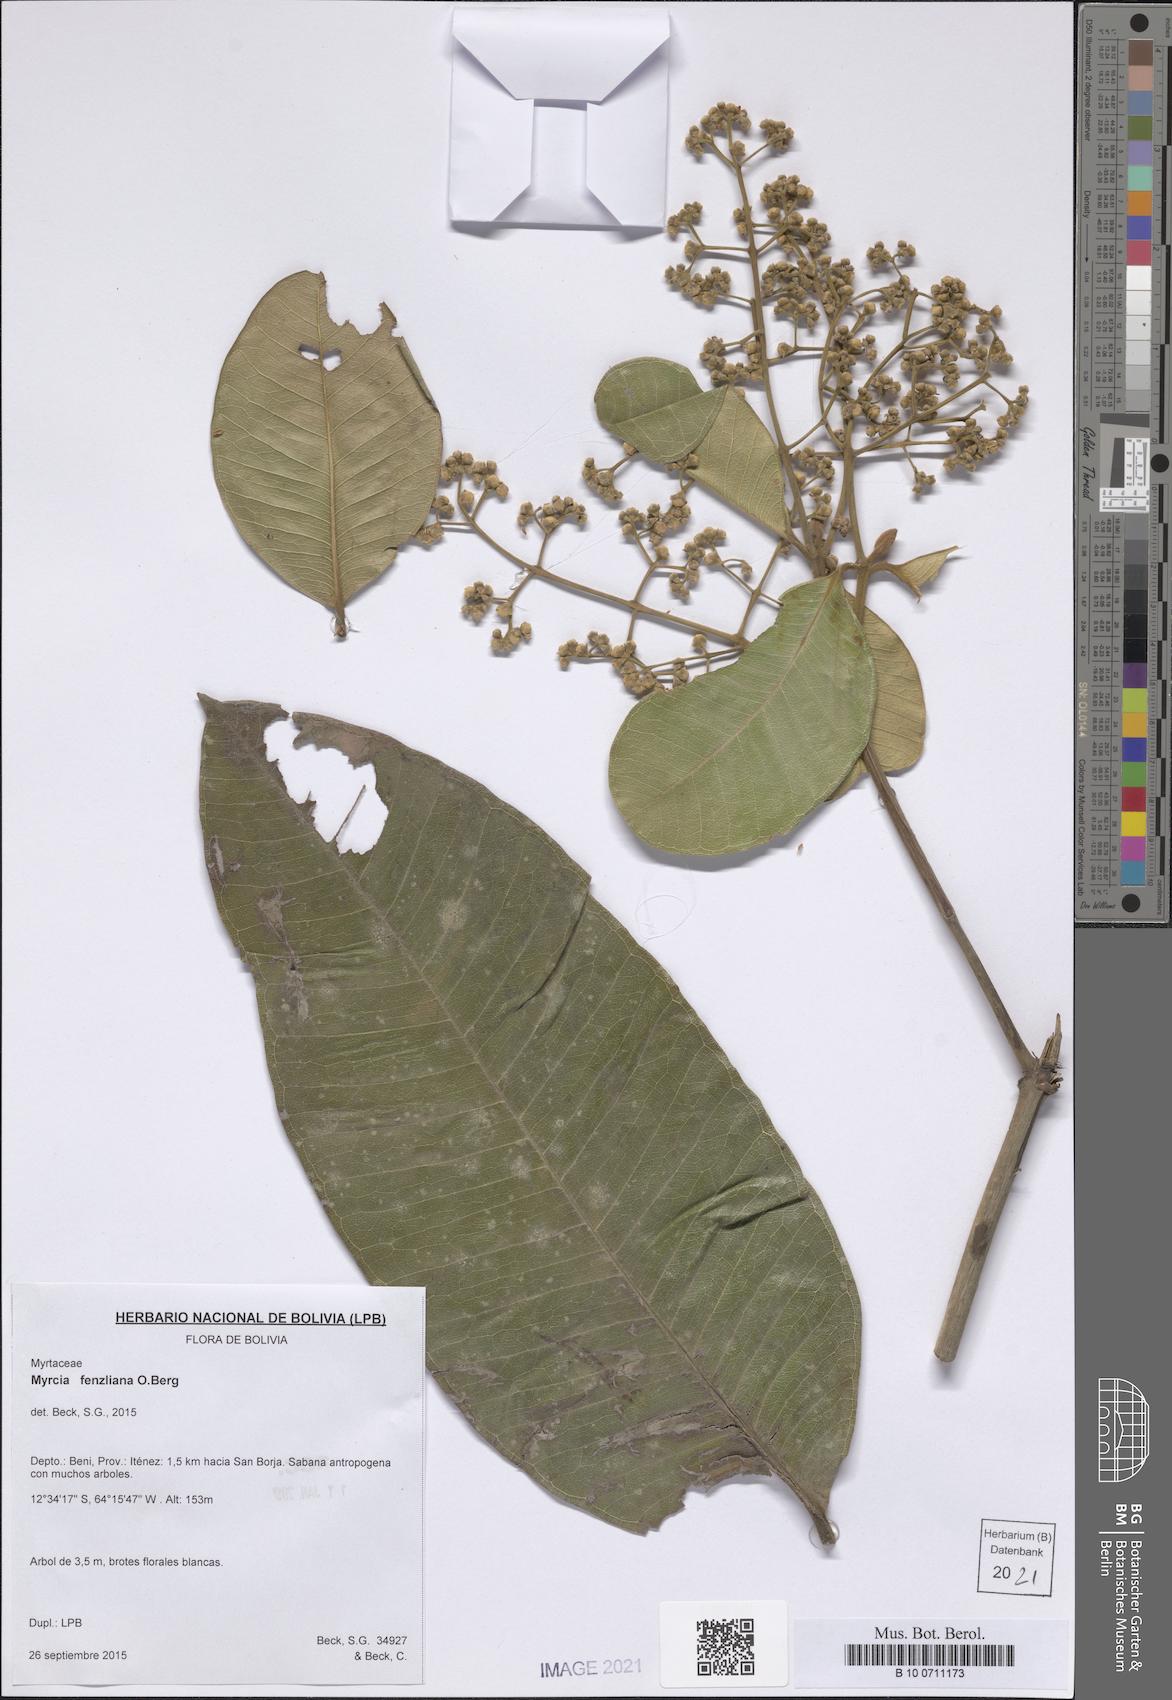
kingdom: Plantae
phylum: Tracheophyta
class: Magnoliopsida
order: Myrtales
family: Myrtaceae
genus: Myrcia
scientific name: Myrcia fenzliana
